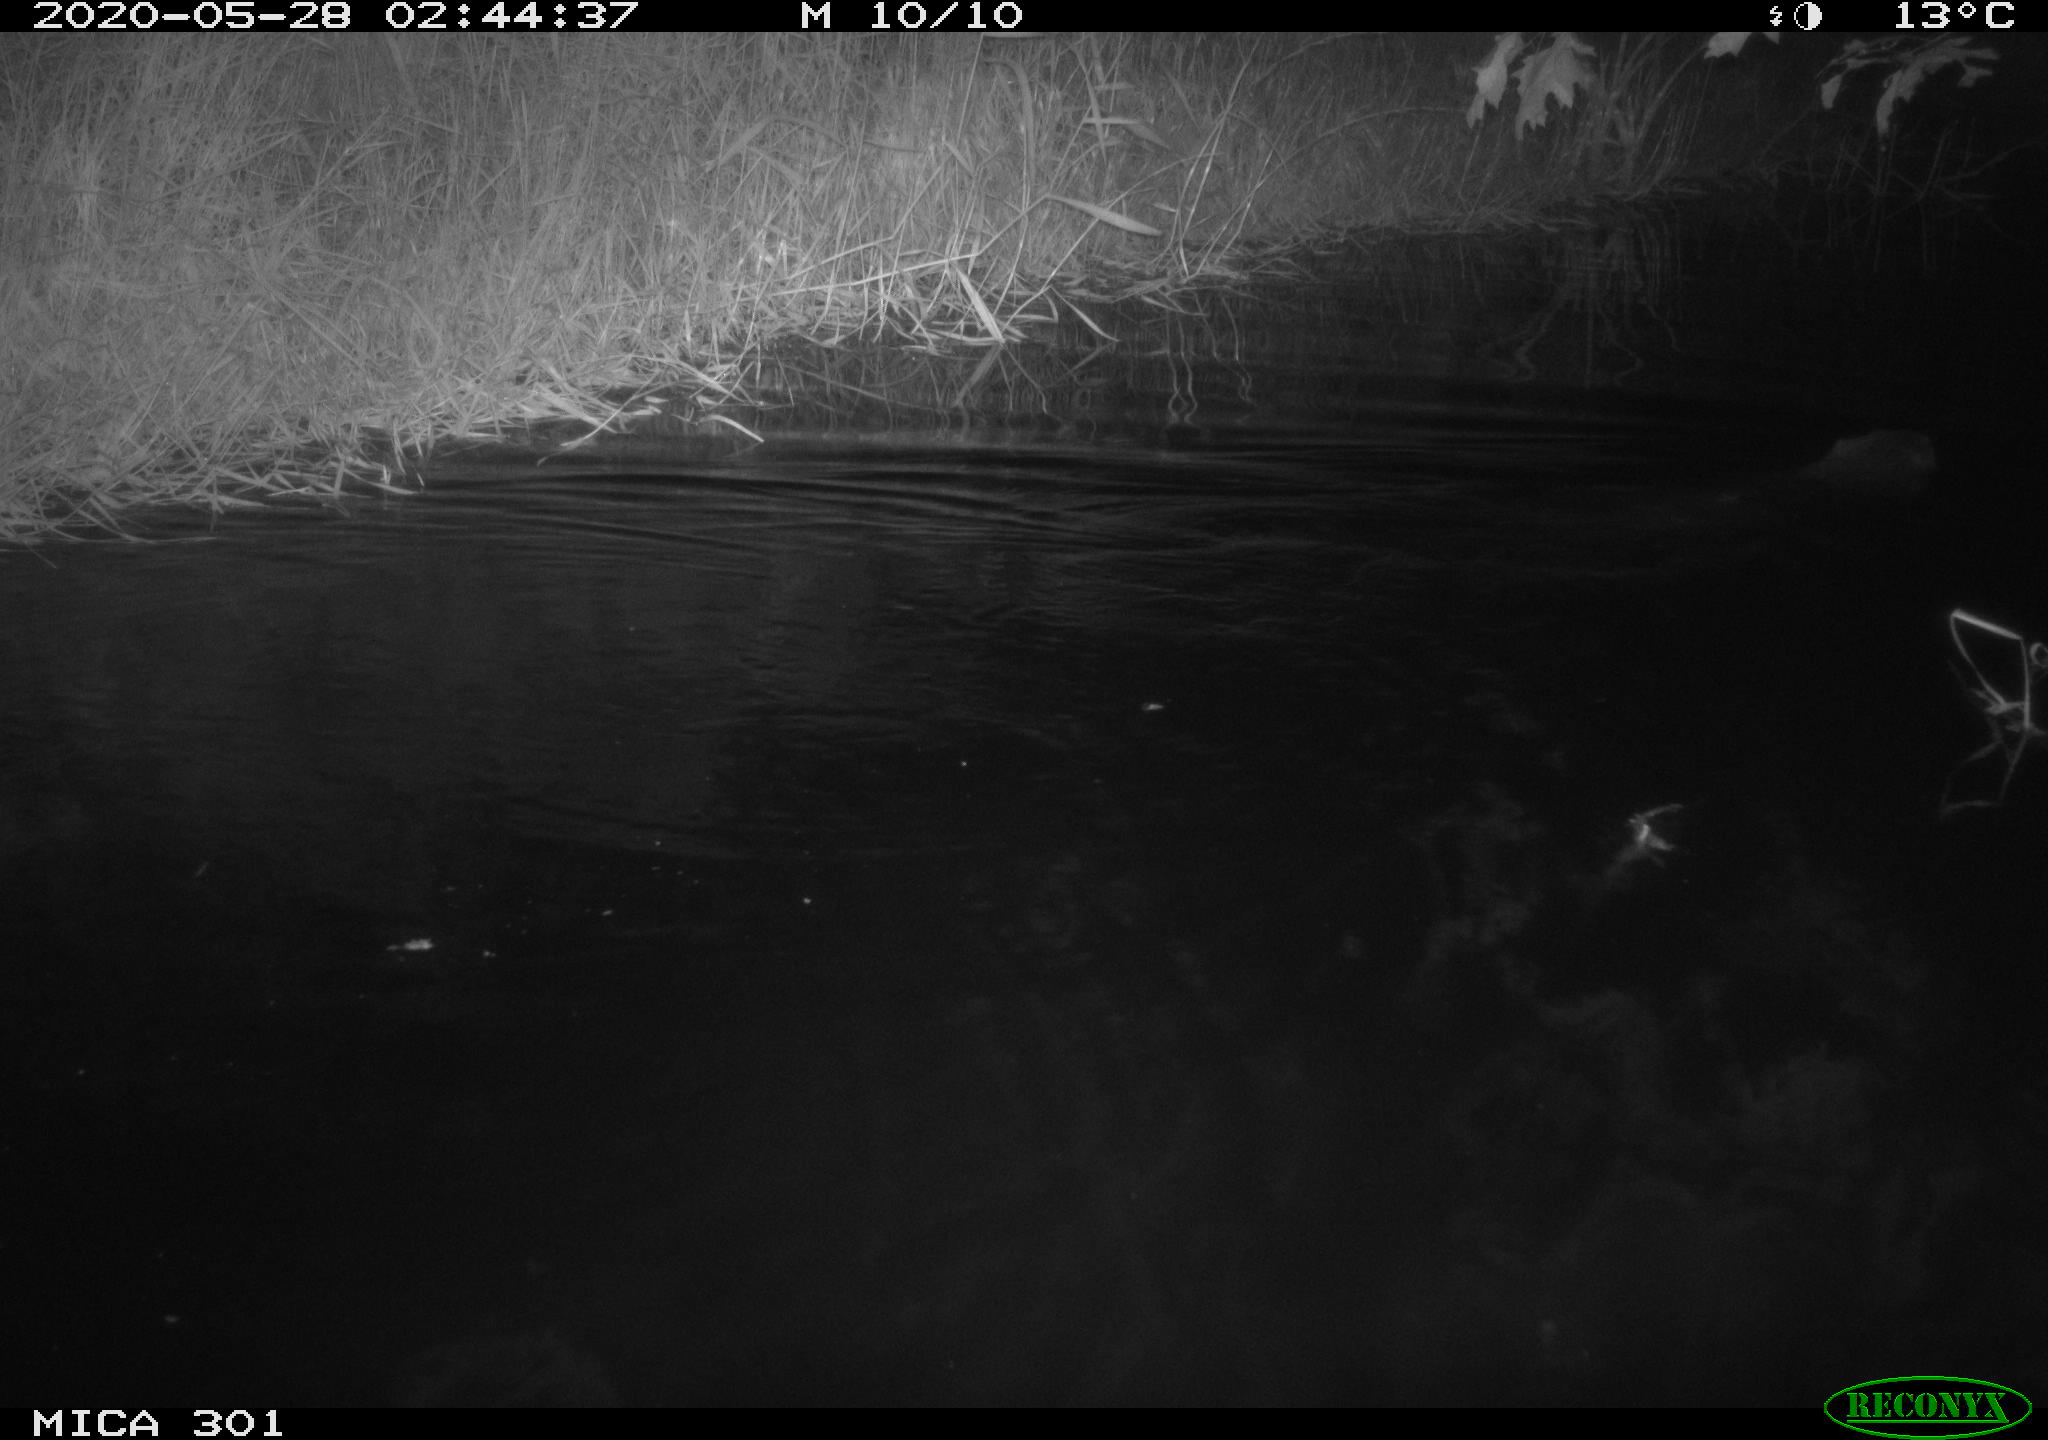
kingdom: Animalia
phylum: Chordata
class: Mammalia
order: Rodentia
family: Castoridae
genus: Castor
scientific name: Castor fiber
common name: Eurasian beaver
